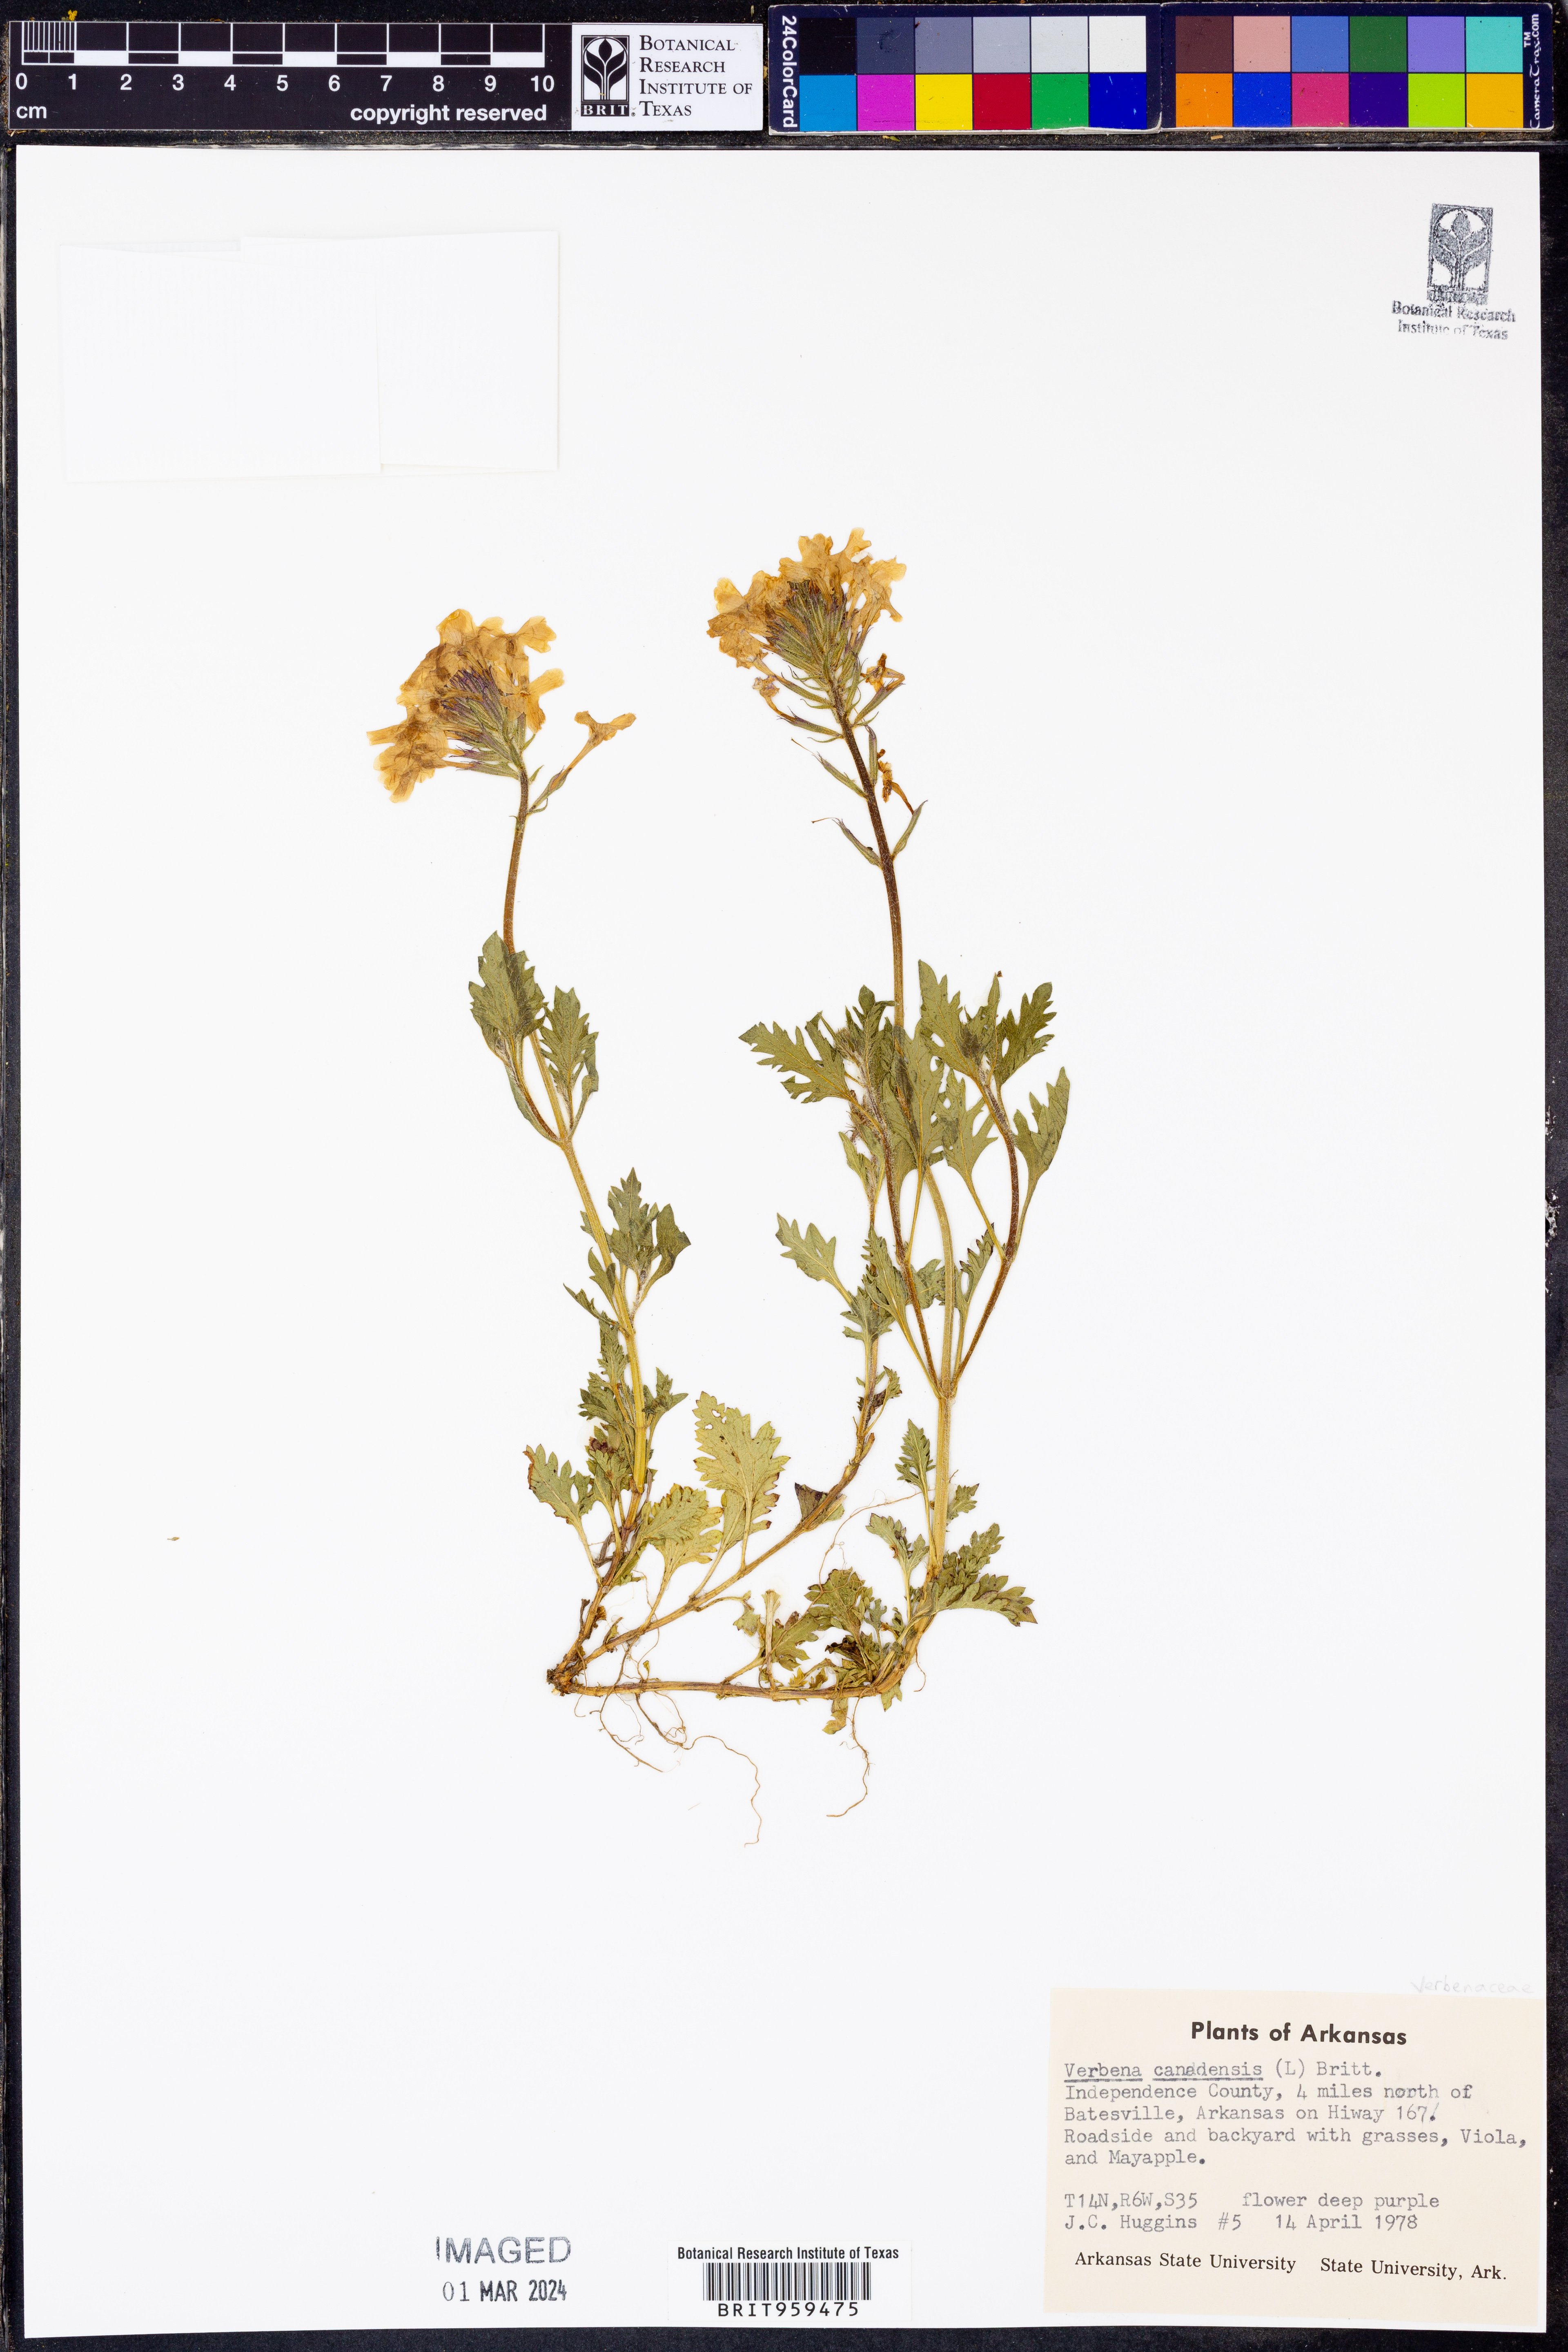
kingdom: Plantae
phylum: Tracheophyta
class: Magnoliopsida
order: Lamiales
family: Verbenaceae
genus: Verbena
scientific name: Verbena canadensis
